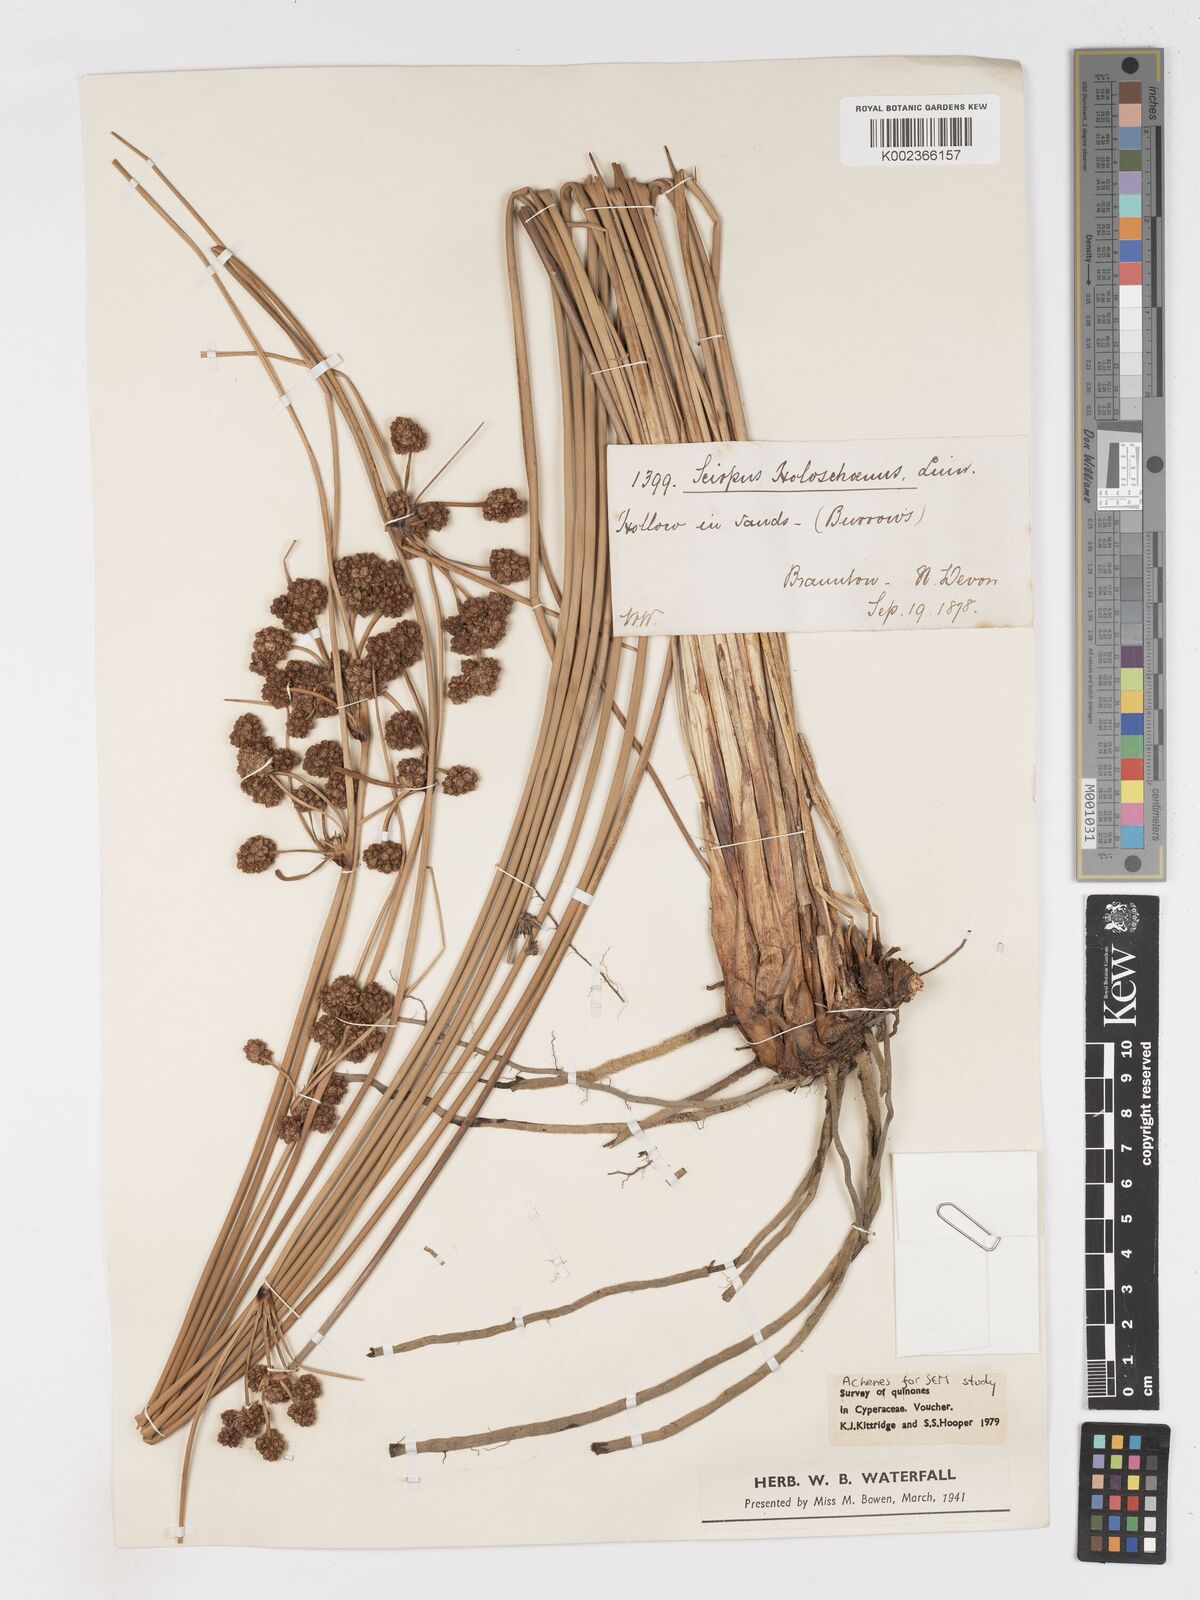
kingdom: Plantae
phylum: Tracheophyta
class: Liliopsida
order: Poales
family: Cyperaceae
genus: Scirpoides
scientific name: Scirpoides holoschoenus
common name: Round-headed club-rush
